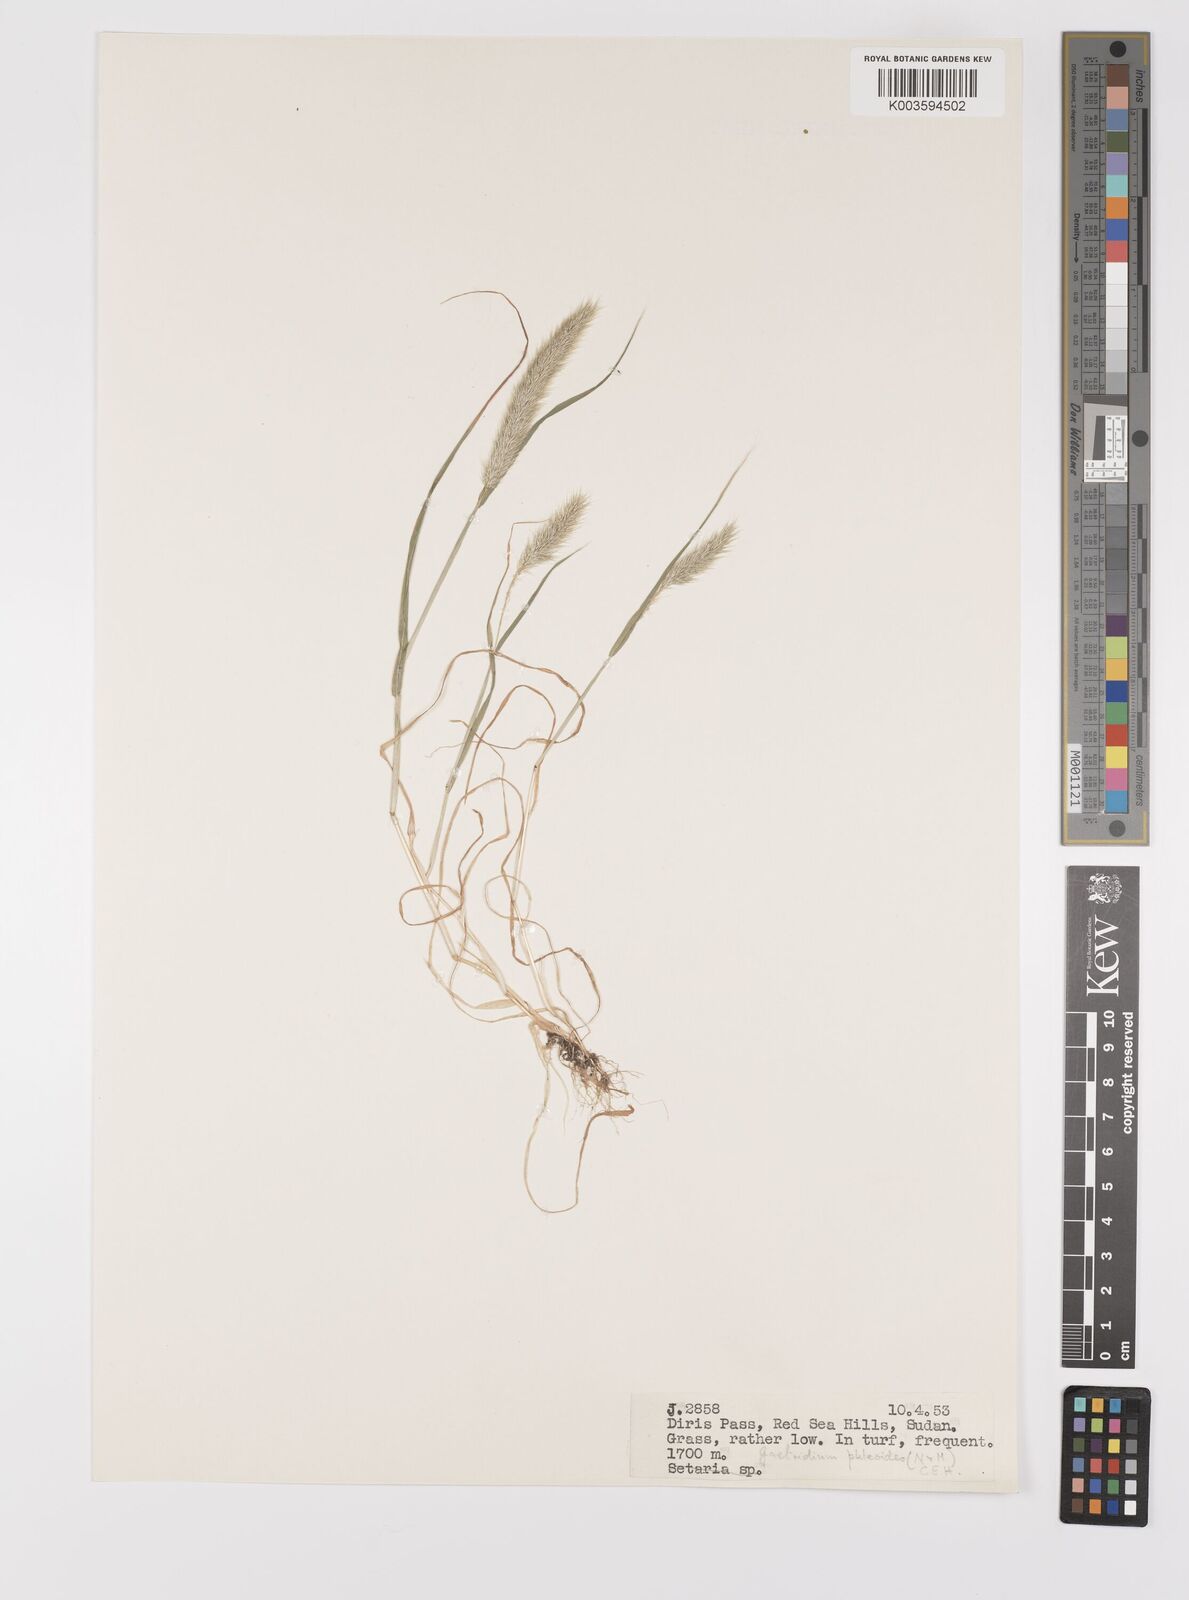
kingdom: Plantae
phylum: Tracheophyta
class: Liliopsida
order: Poales
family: Poaceae
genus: Gastridium
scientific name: Gastridium phleoides
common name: Nit grass
